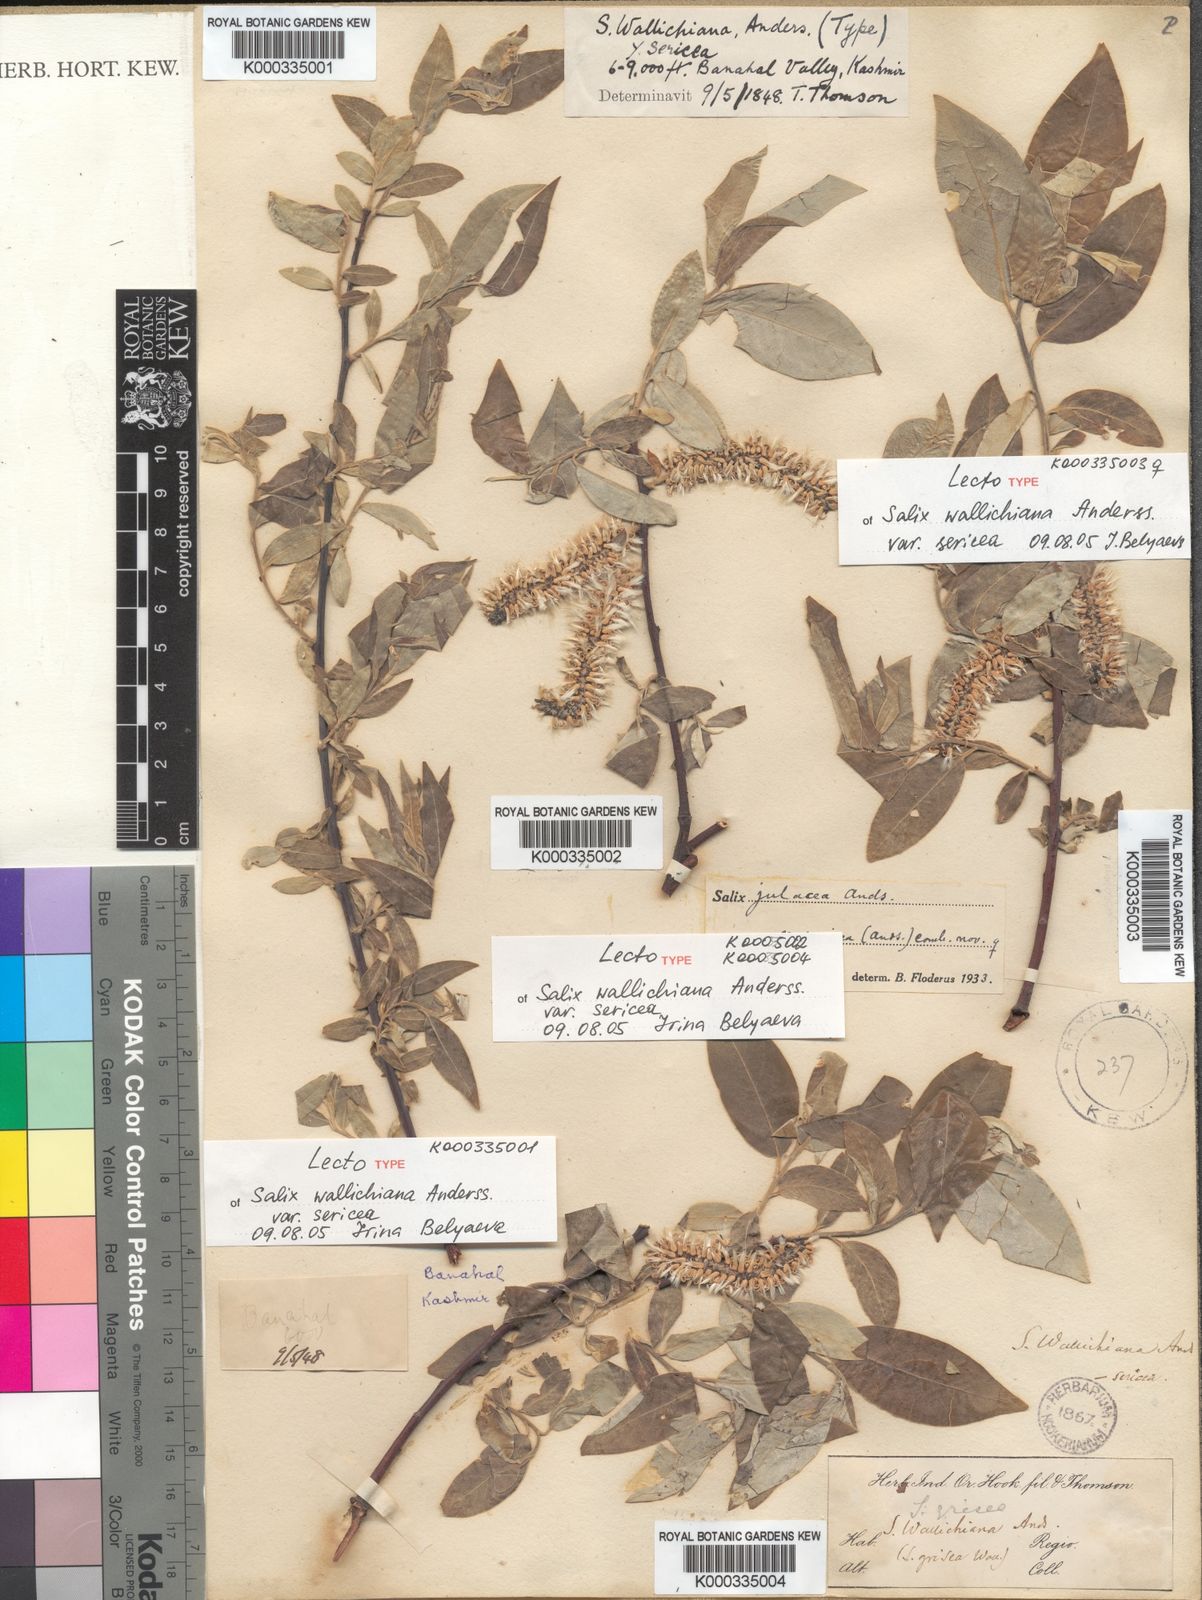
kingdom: Plantae
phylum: Tracheophyta
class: Magnoliopsida
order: Malpighiales
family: Salicaceae
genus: Salix
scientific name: Salix disperma
